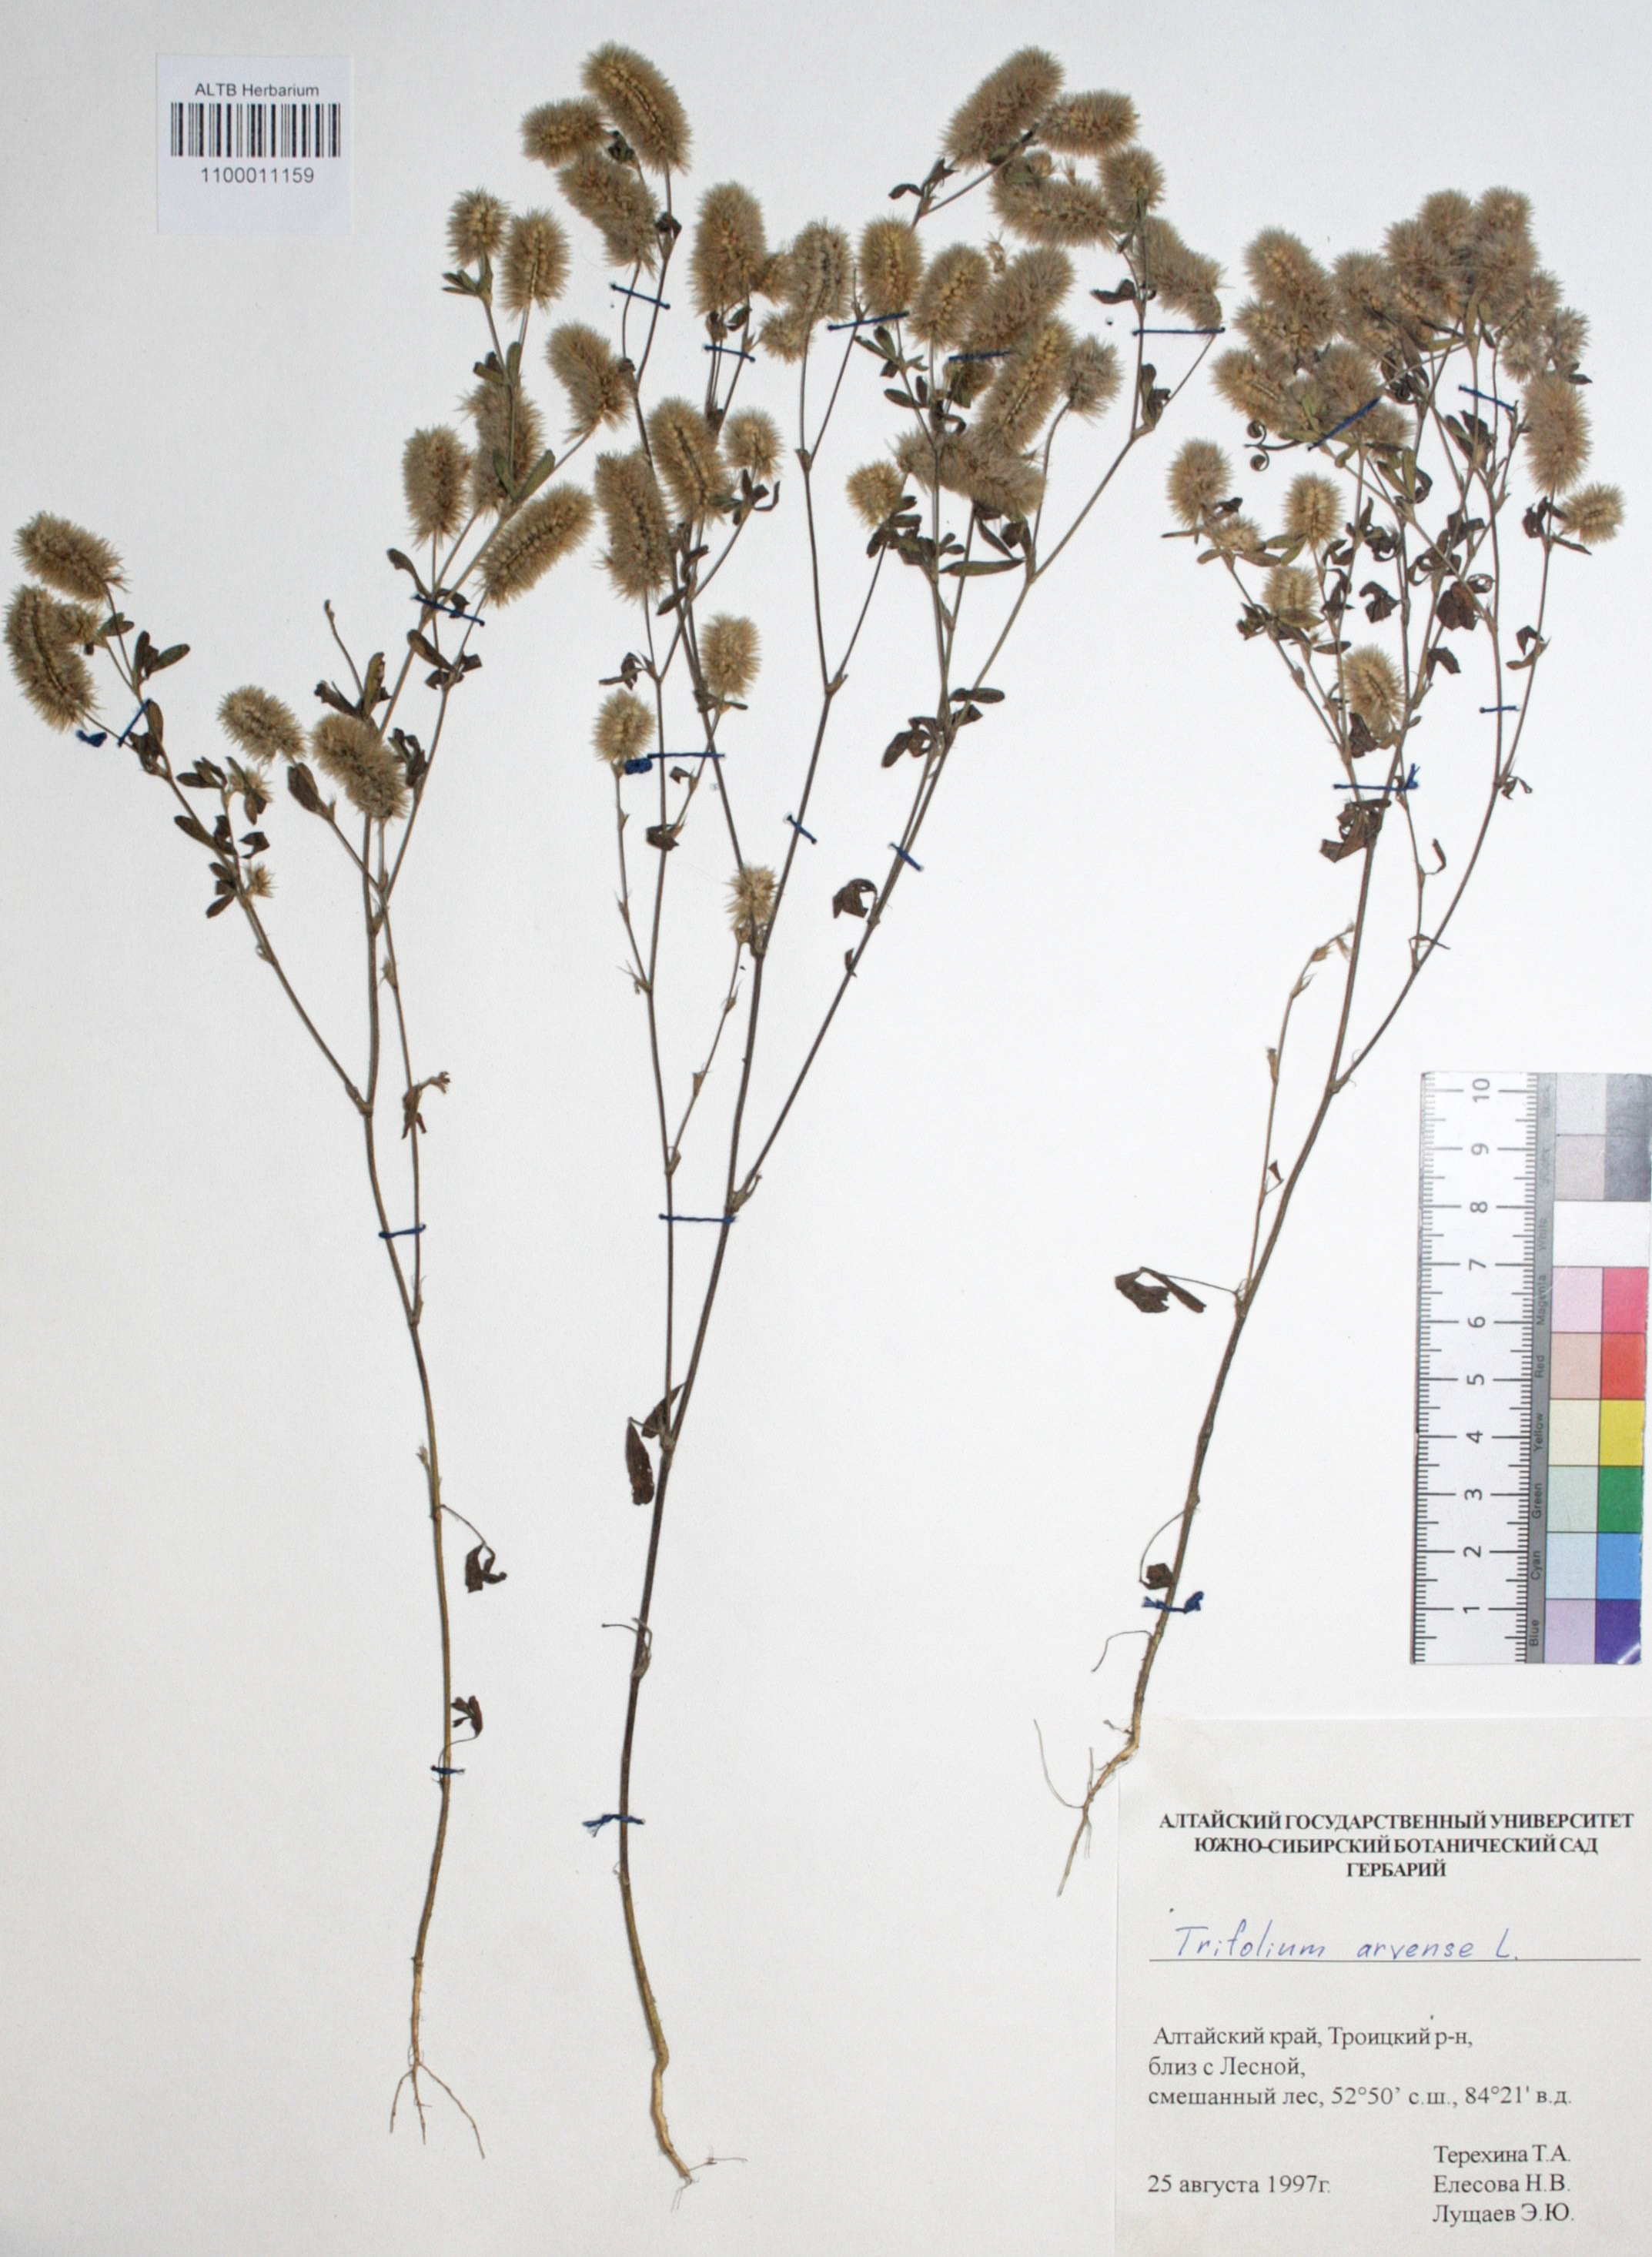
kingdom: Plantae
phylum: Tracheophyta
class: Magnoliopsida
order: Fabales
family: Fabaceae
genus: Trifolium
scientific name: Trifolium arvense
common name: Hare's-foot clover
